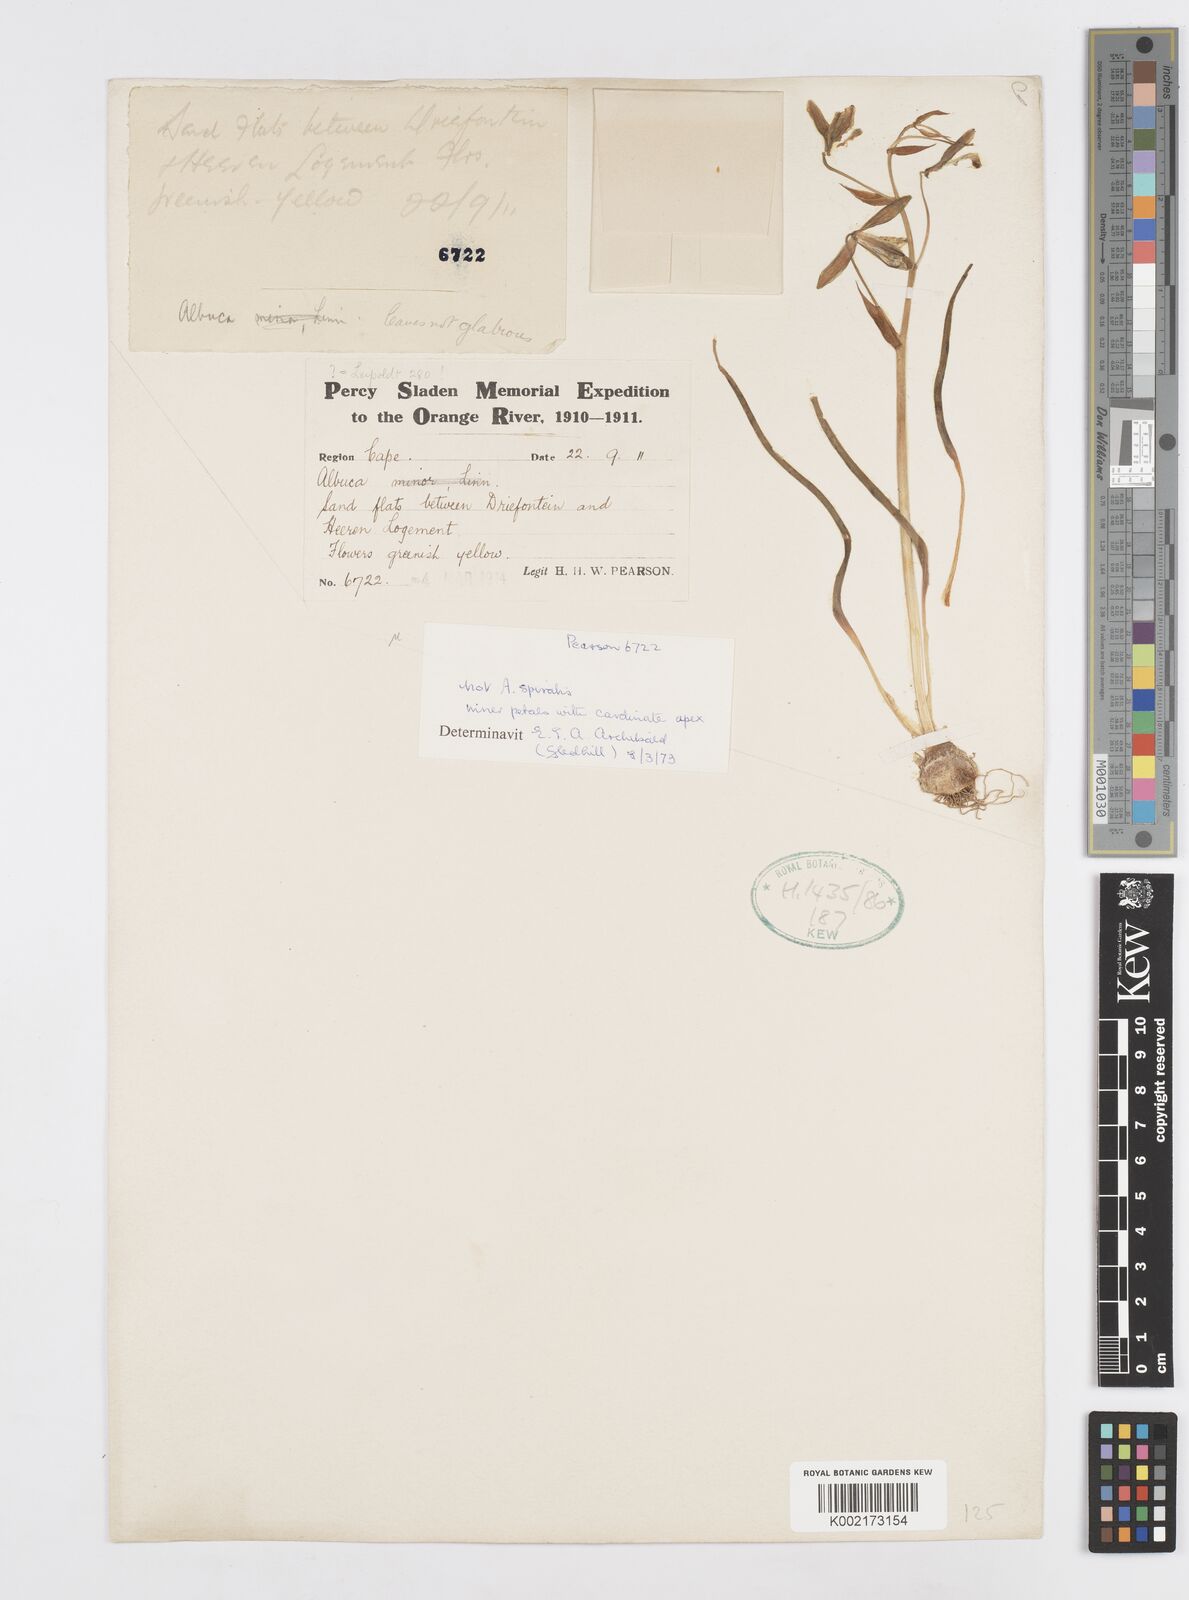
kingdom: Plantae
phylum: Tracheophyta
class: Liliopsida
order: Asparagales
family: Asparagaceae
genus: Albuca
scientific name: Albuca
